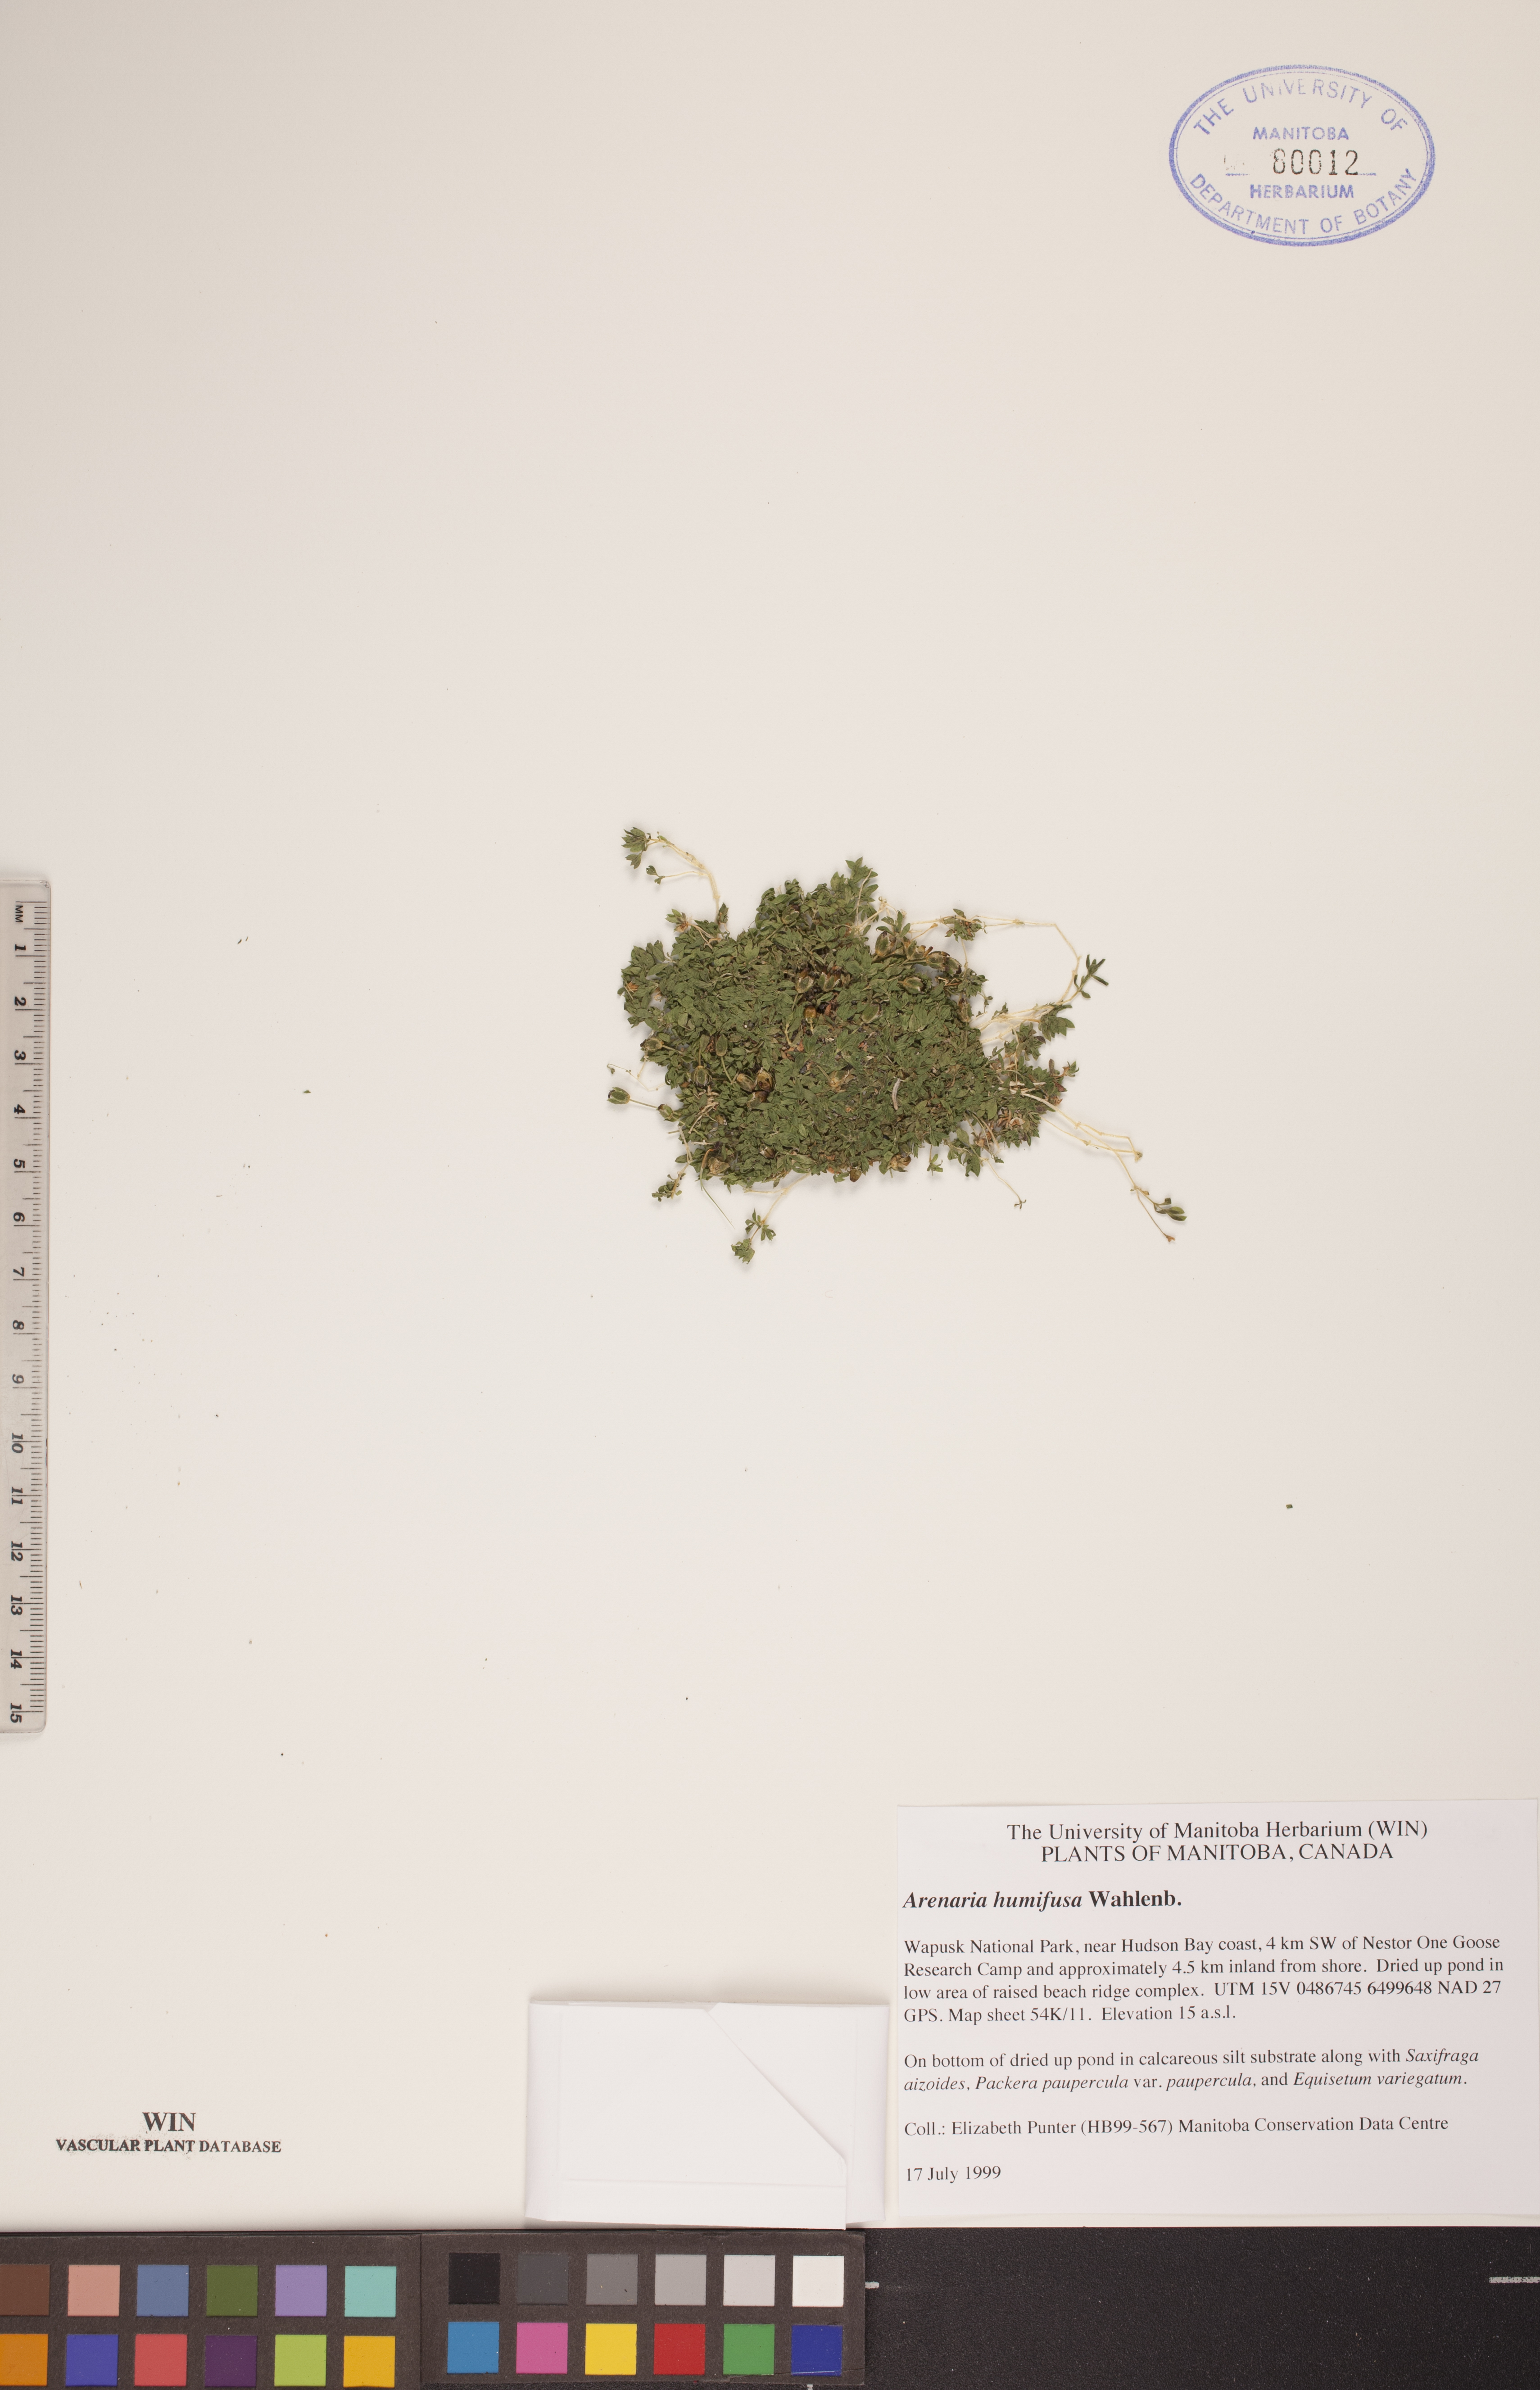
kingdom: Plantae
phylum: Tracheophyta
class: Magnoliopsida
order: Caryophyllales
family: Caryophyllaceae
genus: Arenaria
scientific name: Arenaria humifusa
